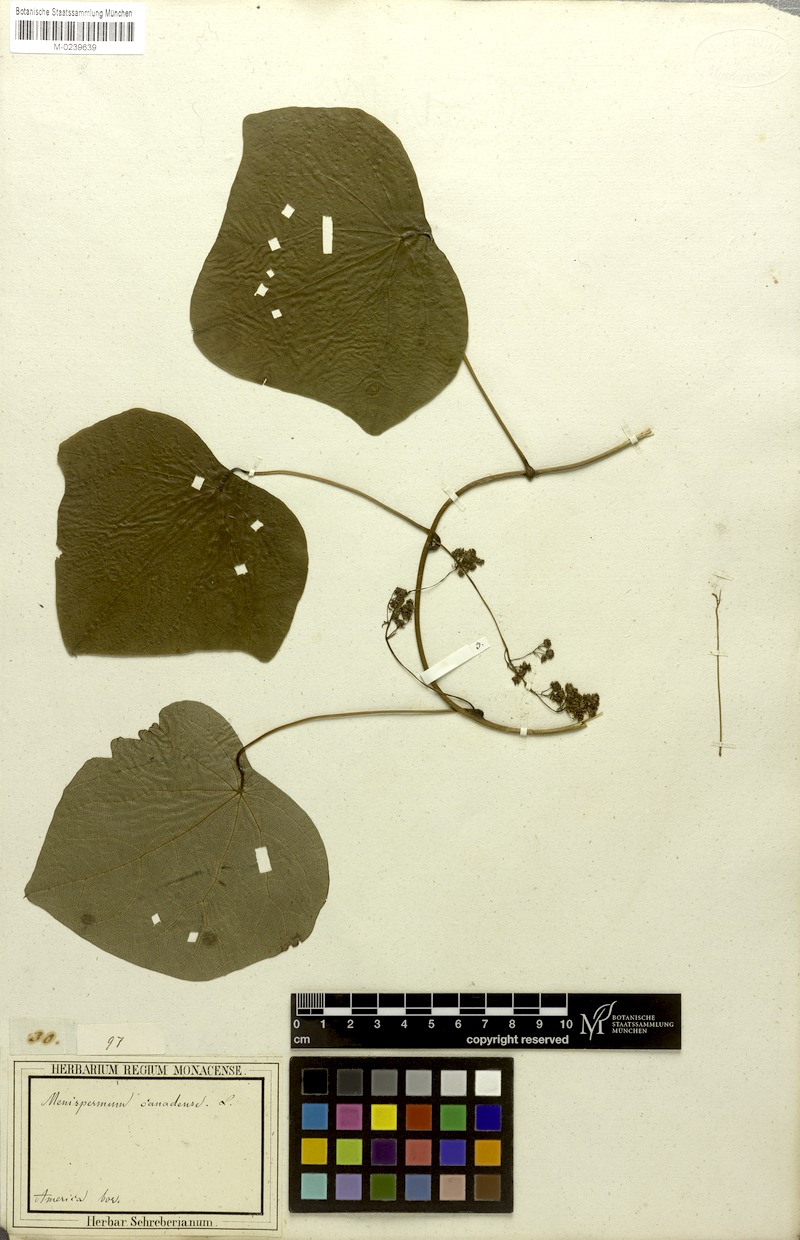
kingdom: Plantae
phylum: Tracheophyta
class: Magnoliopsida
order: Ranunculales
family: Menispermaceae
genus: Menispermum
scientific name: Menispermum canadense
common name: Moonseed
